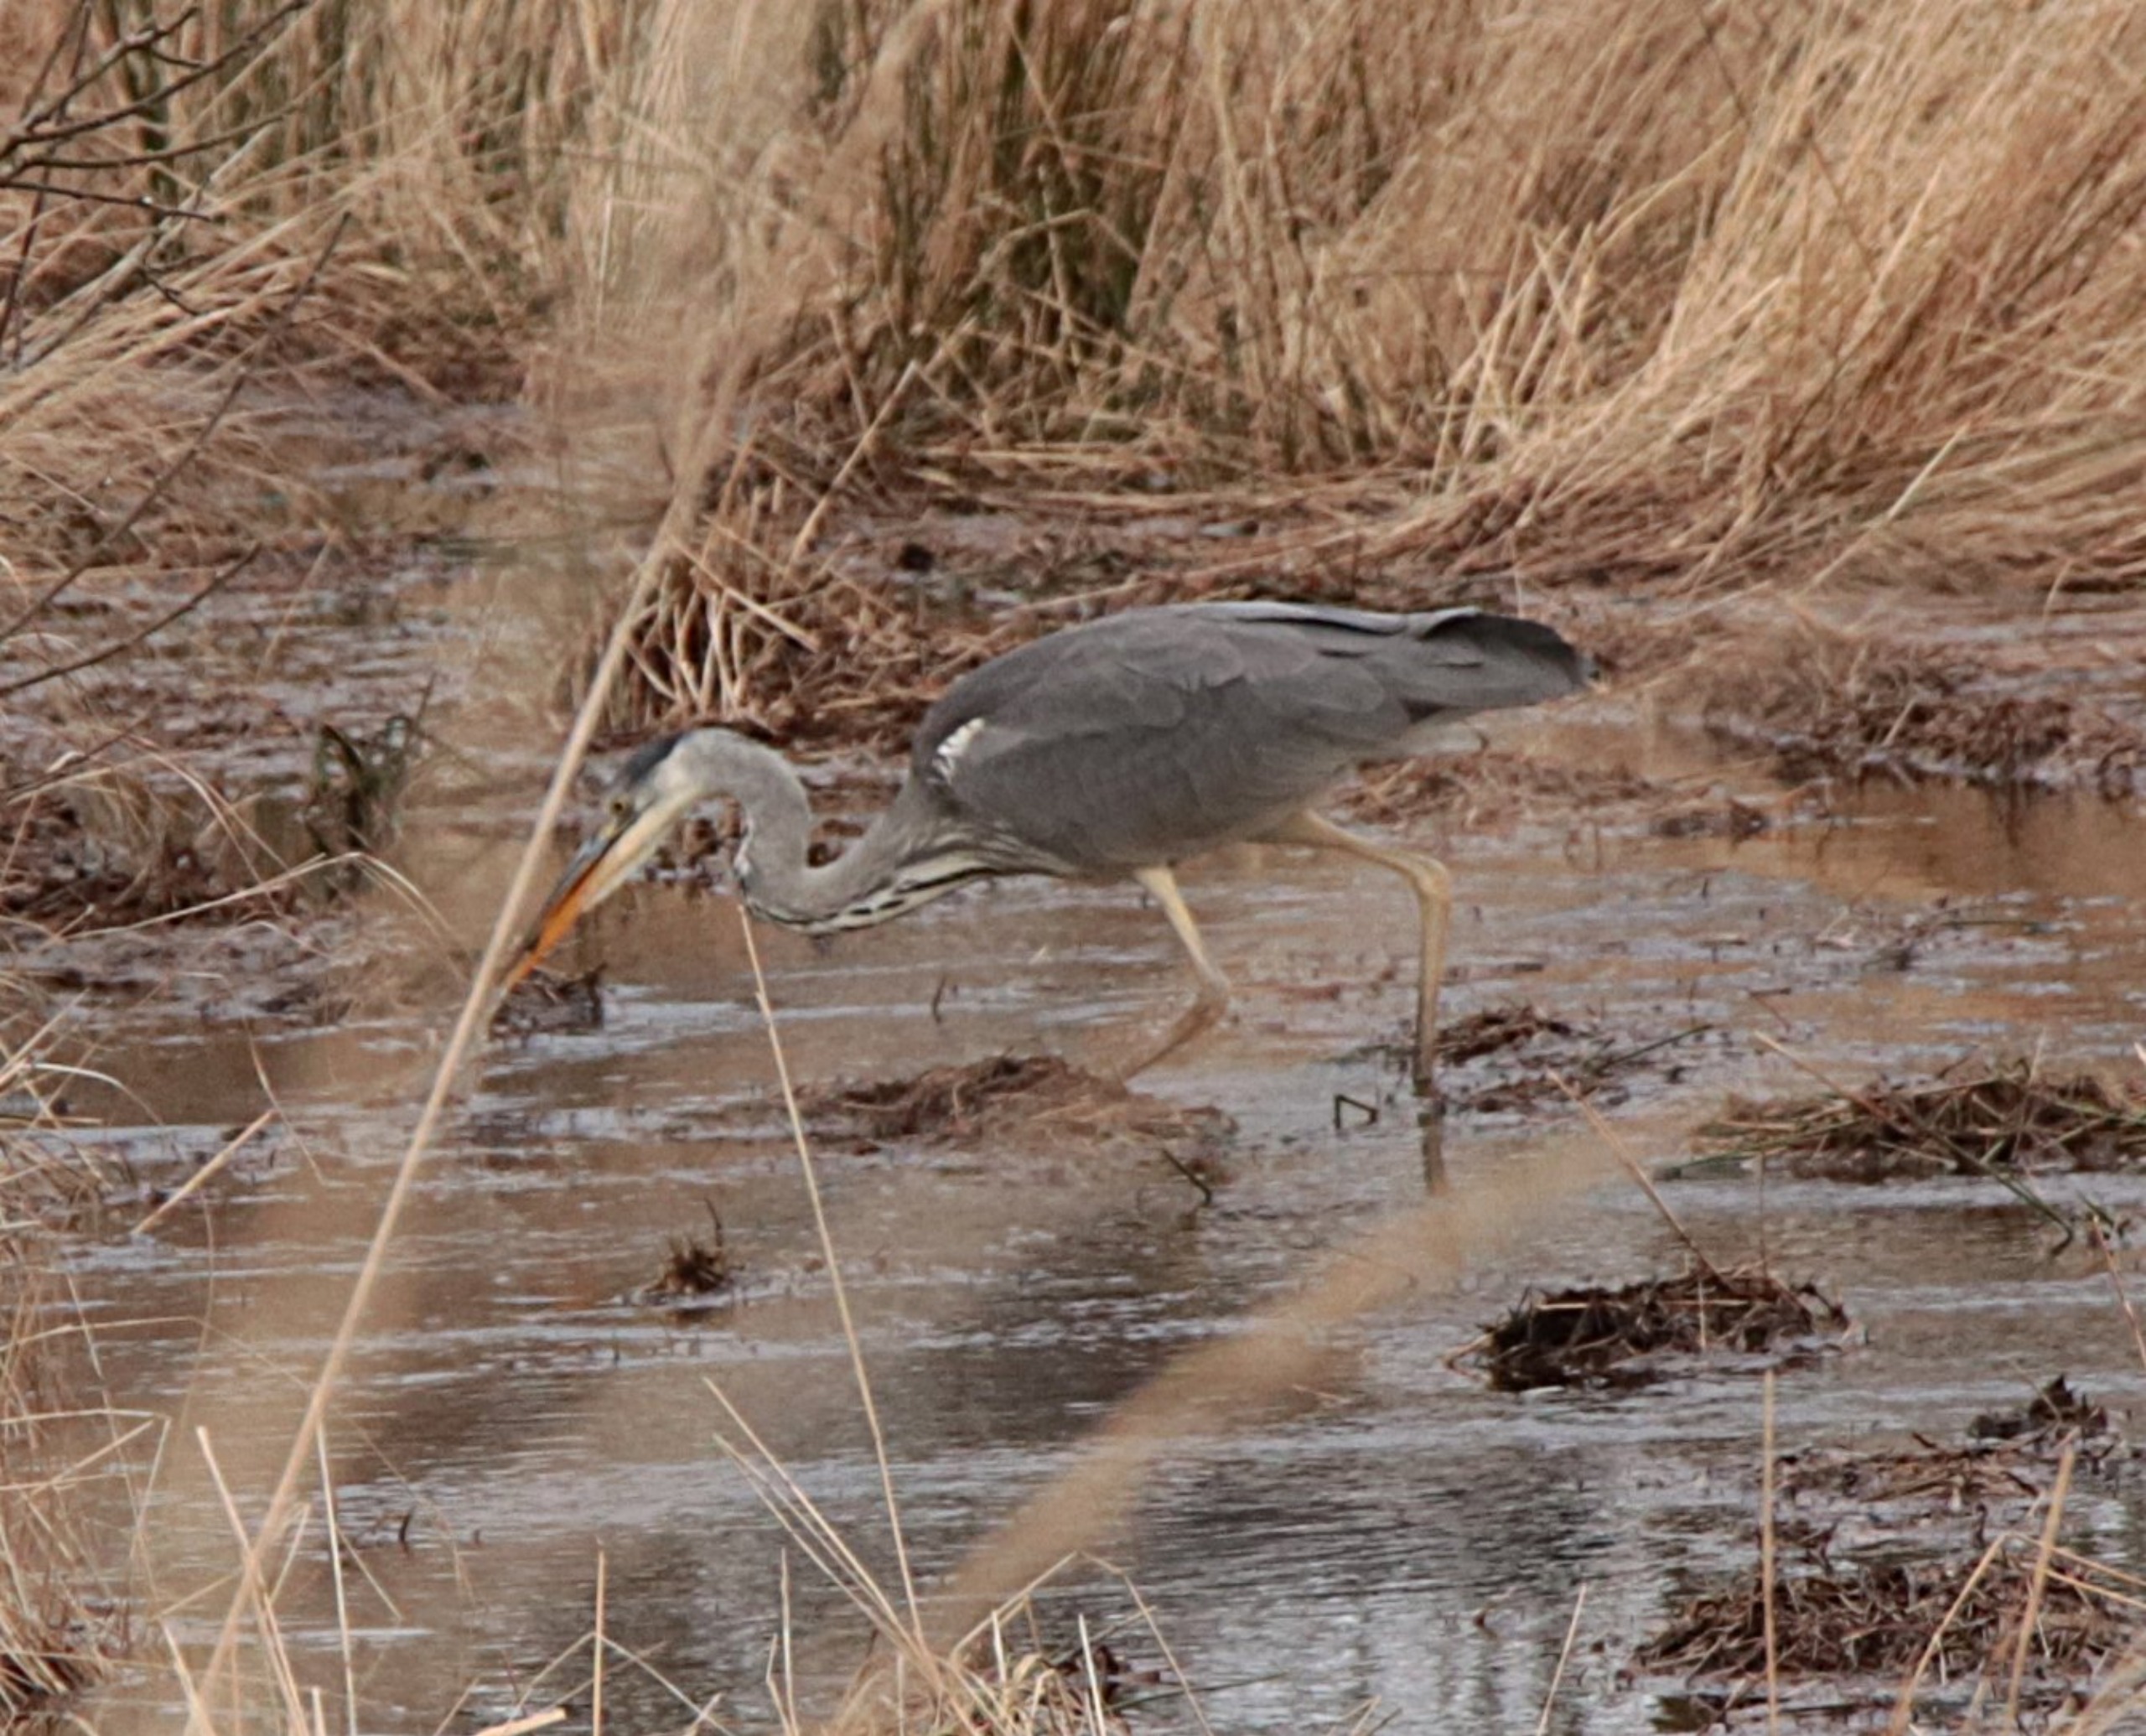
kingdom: Animalia
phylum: Chordata
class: Aves
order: Pelecaniformes
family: Ardeidae
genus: Ardea
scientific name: Ardea cinerea
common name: Fiskehejre
